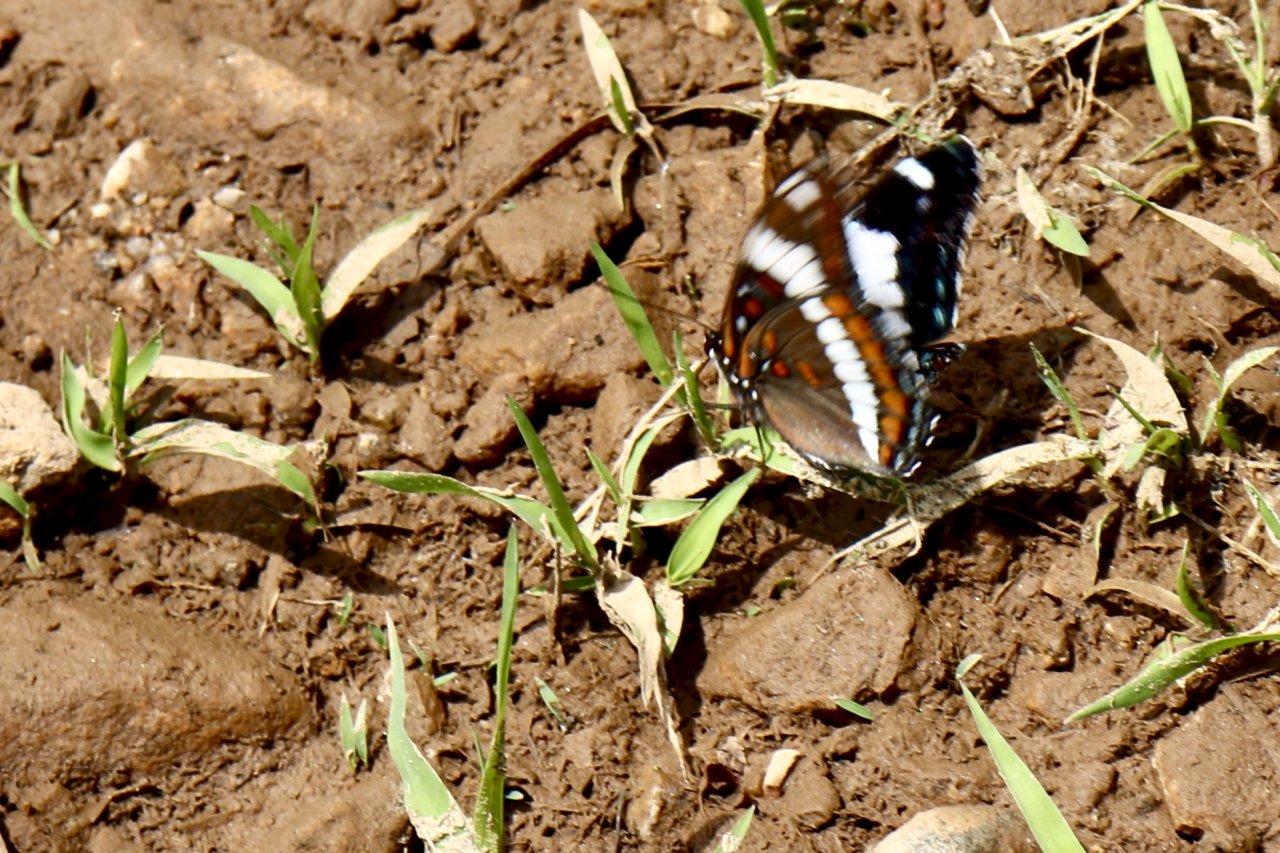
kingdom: Animalia
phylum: Arthropoda
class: Insecta
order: Lepidoptera
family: Nymphalidae
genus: Limenitis
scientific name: Limenitis arthemis
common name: Red-spotted Admiral
